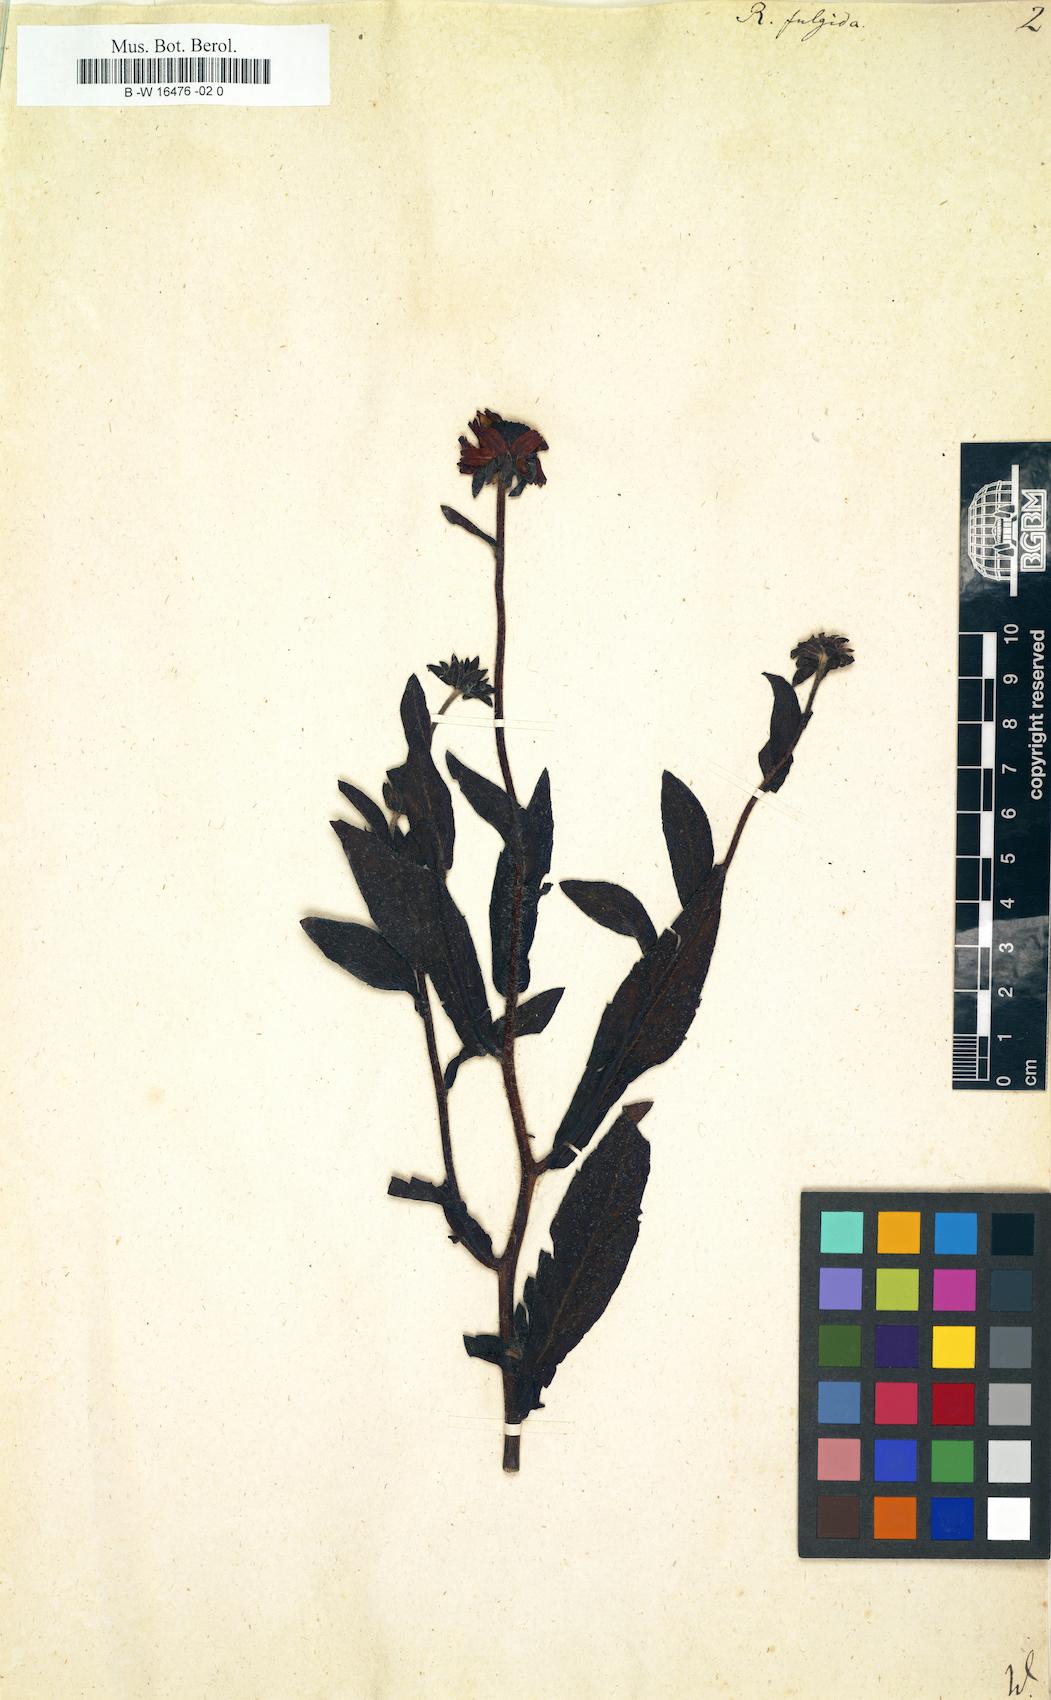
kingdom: Plantae
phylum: Tracheophyta
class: Magnoliopsida
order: Asterales
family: Asteraceae
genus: Rudbeckia
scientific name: Rudbeckia fulgida
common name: Perennial coneflower
